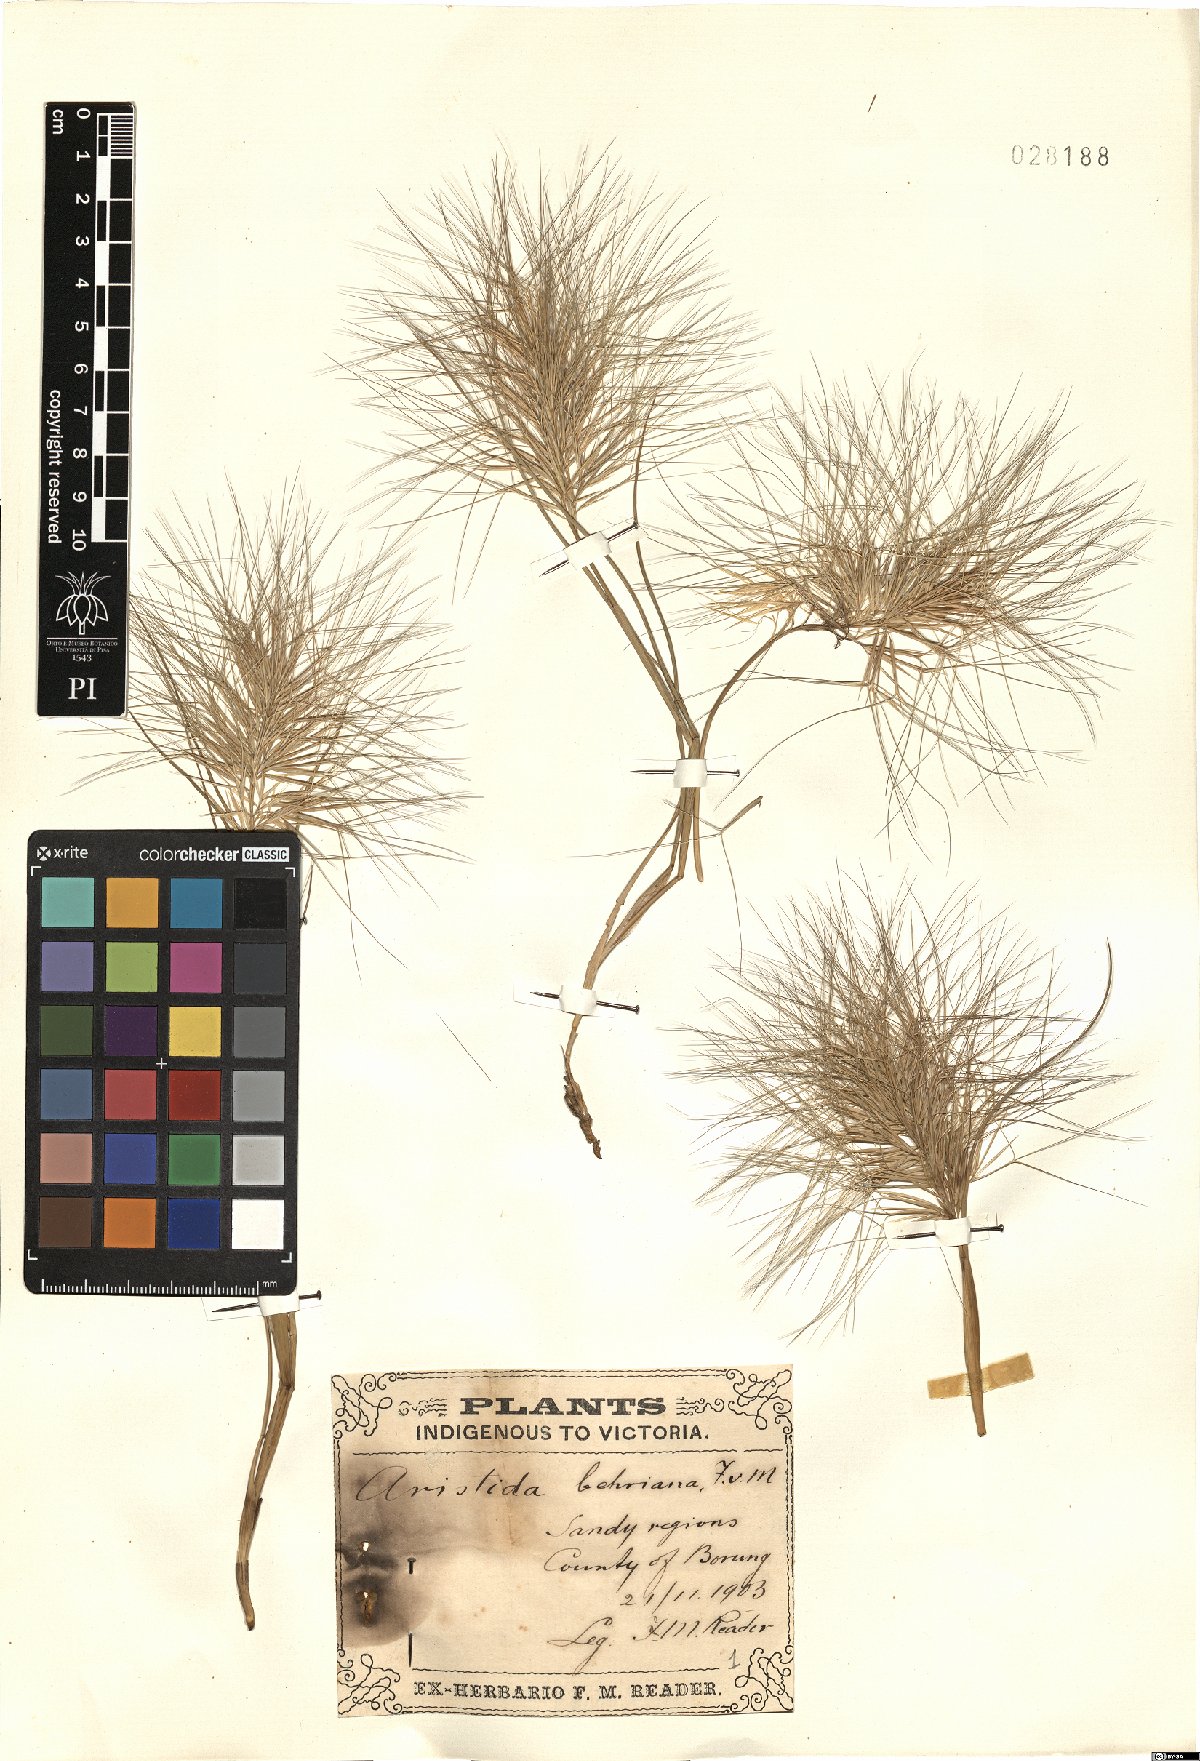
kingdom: Plantae
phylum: Tracheophyta
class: Liliopsida
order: Poales
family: Poaceae
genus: Aristida
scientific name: Aristida behriana
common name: Long-awn wire grass
